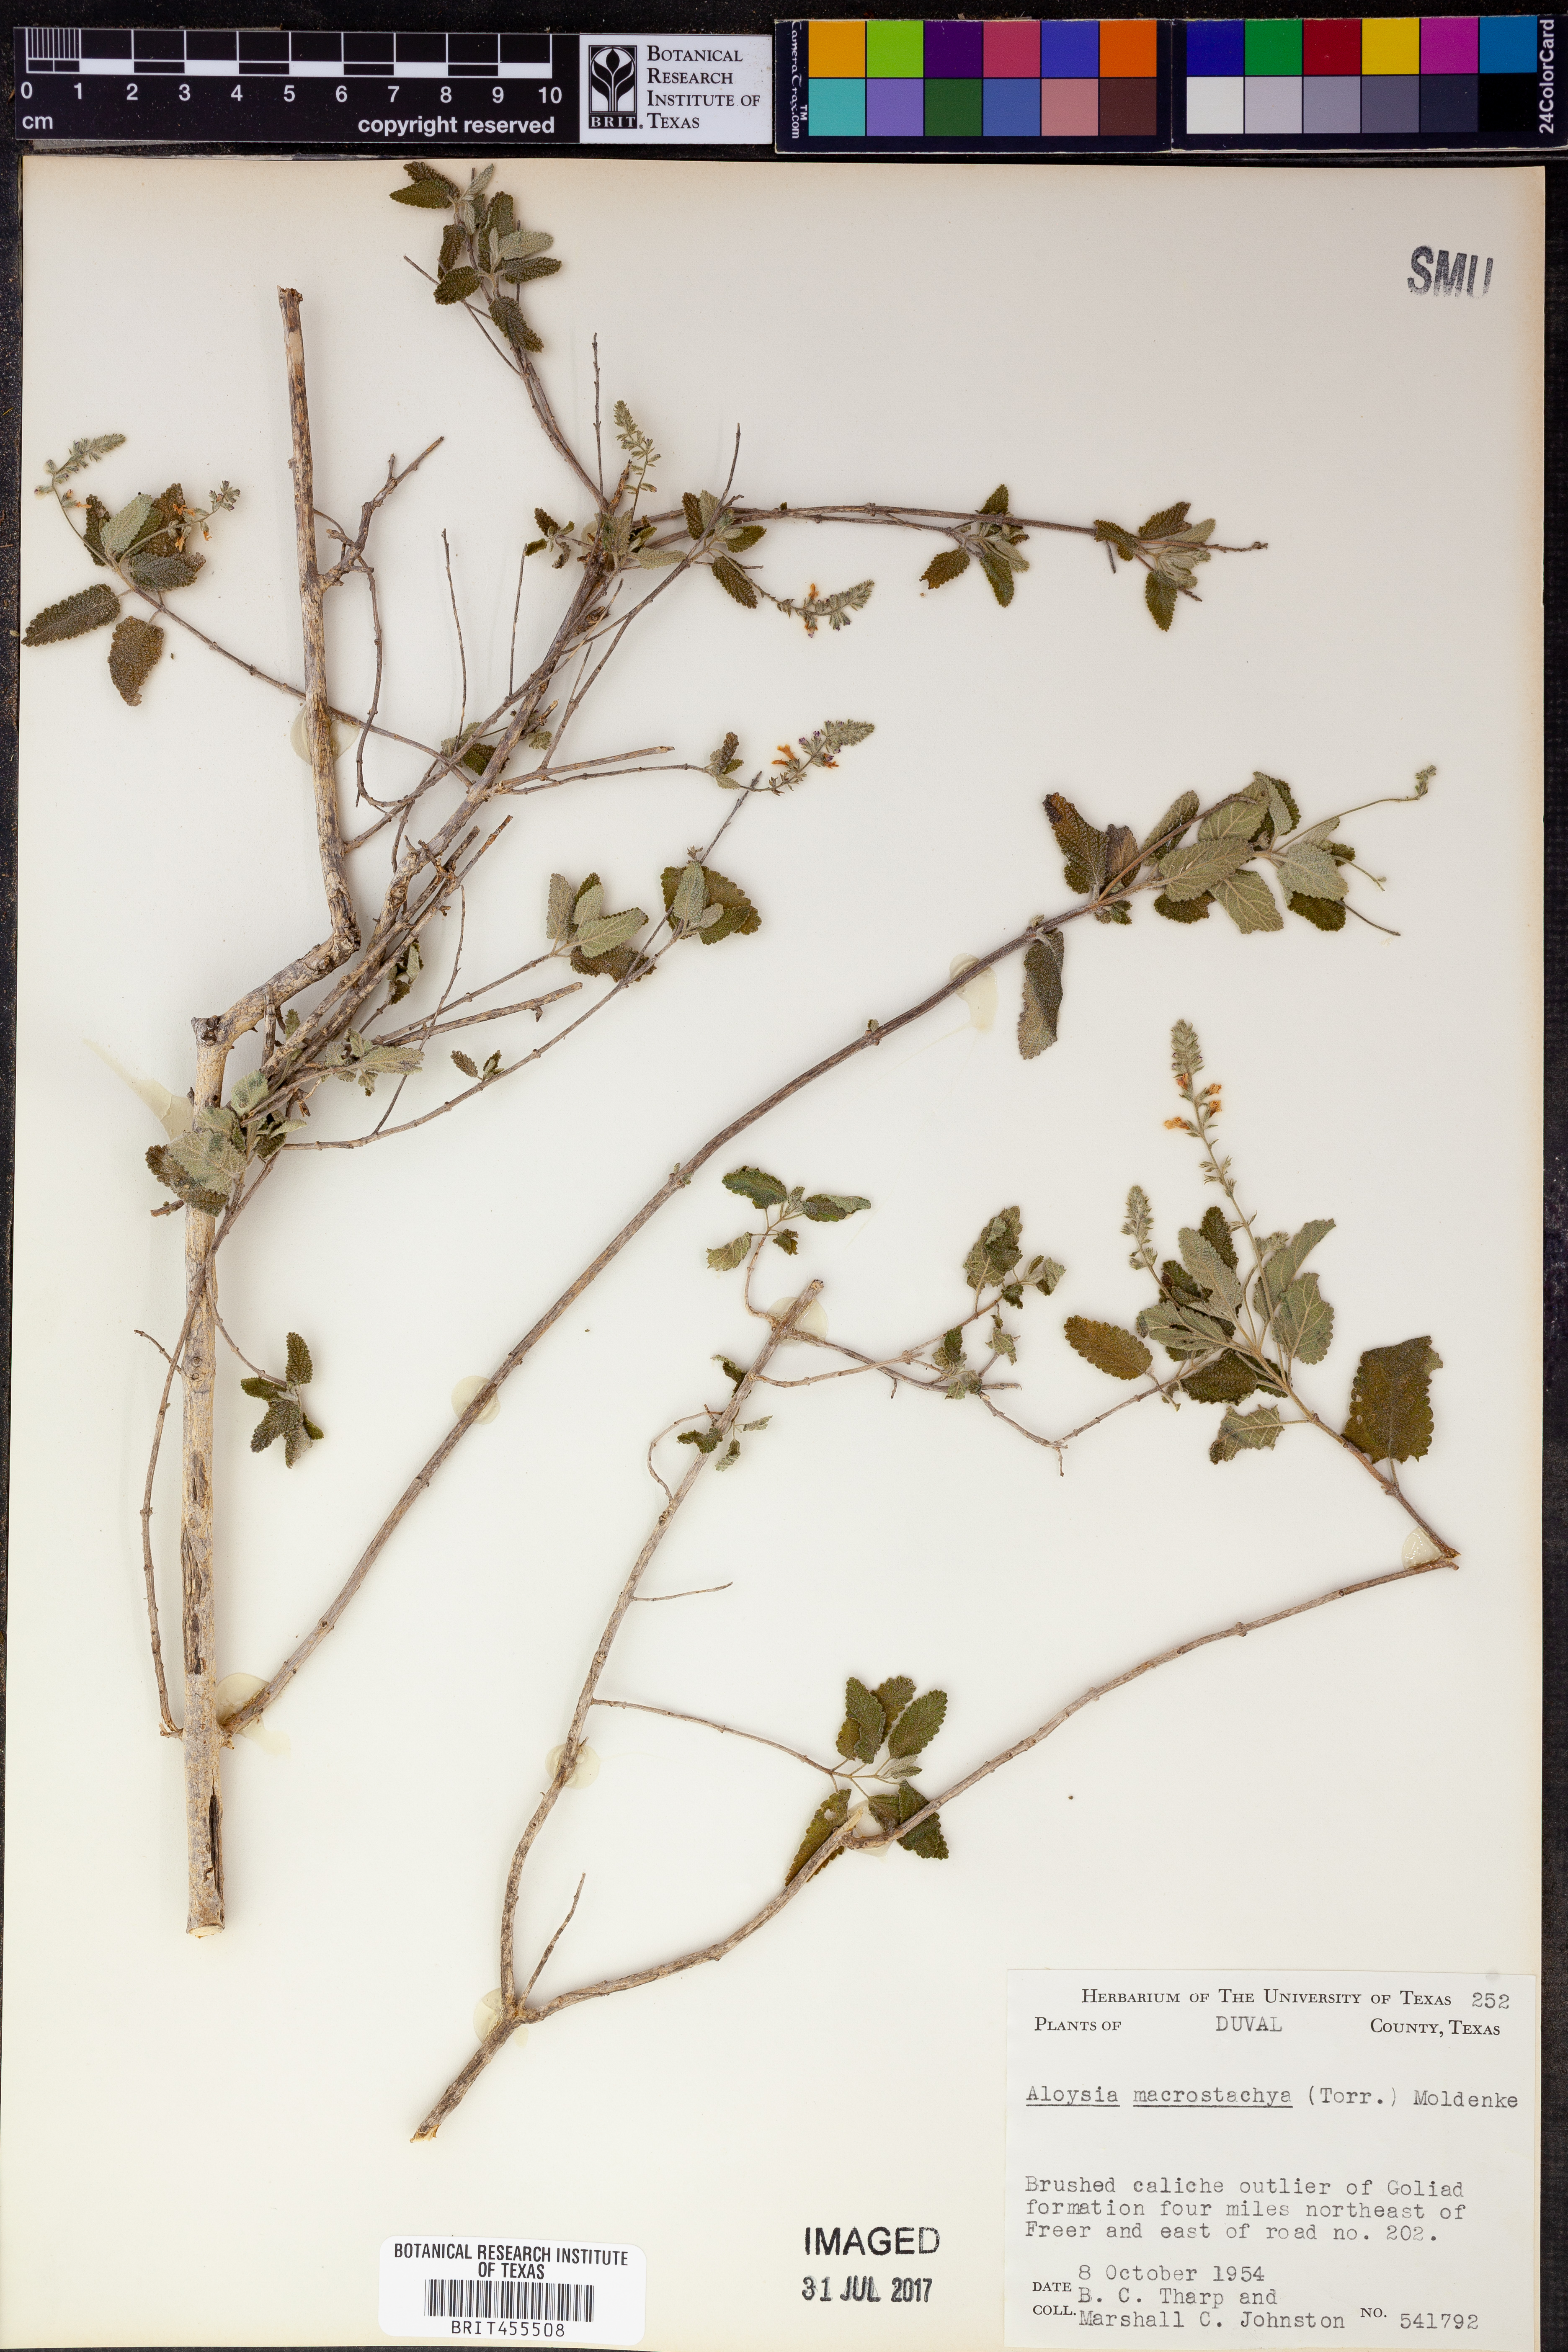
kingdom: Plantae
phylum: Tracheophyta
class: Magnoliopsida
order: Lamiales
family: Verbenaceae
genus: Aloysia
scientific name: Aloysia macrostachya
